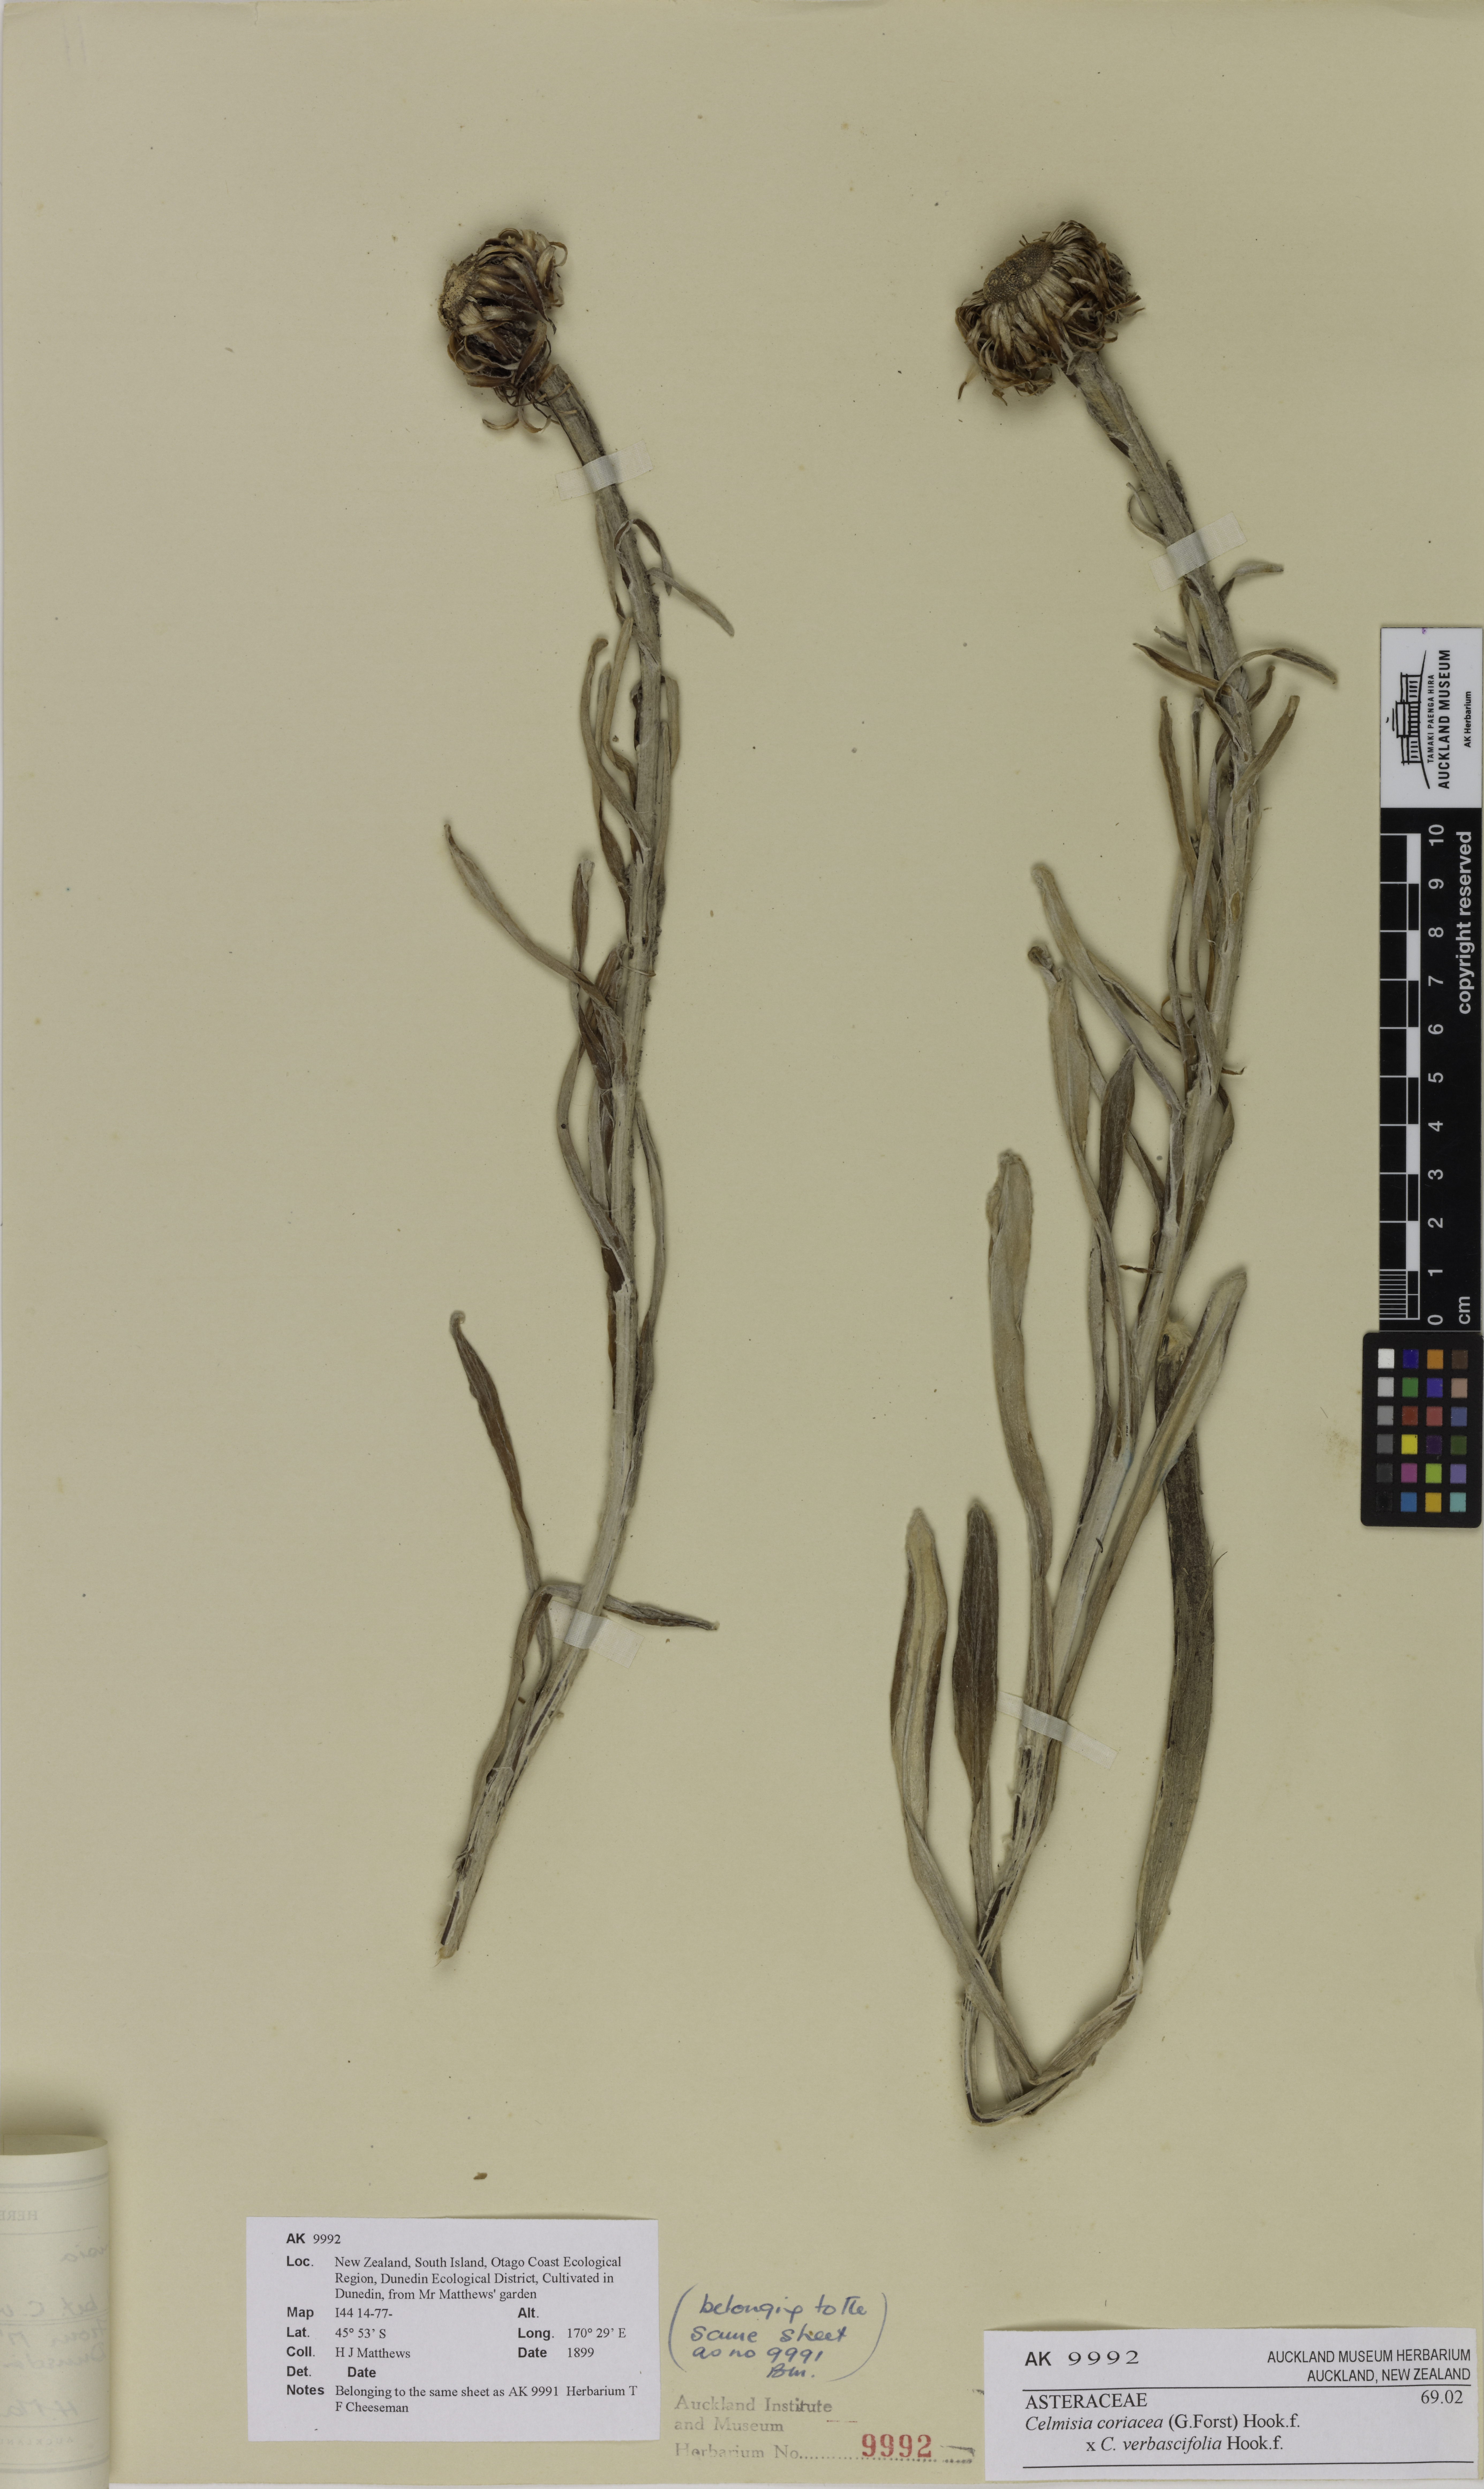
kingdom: Plantae
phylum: Tracheophyta
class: Magnoliopsida
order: Asterales
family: Asteraceae
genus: Celmisia
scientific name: Celmisia
